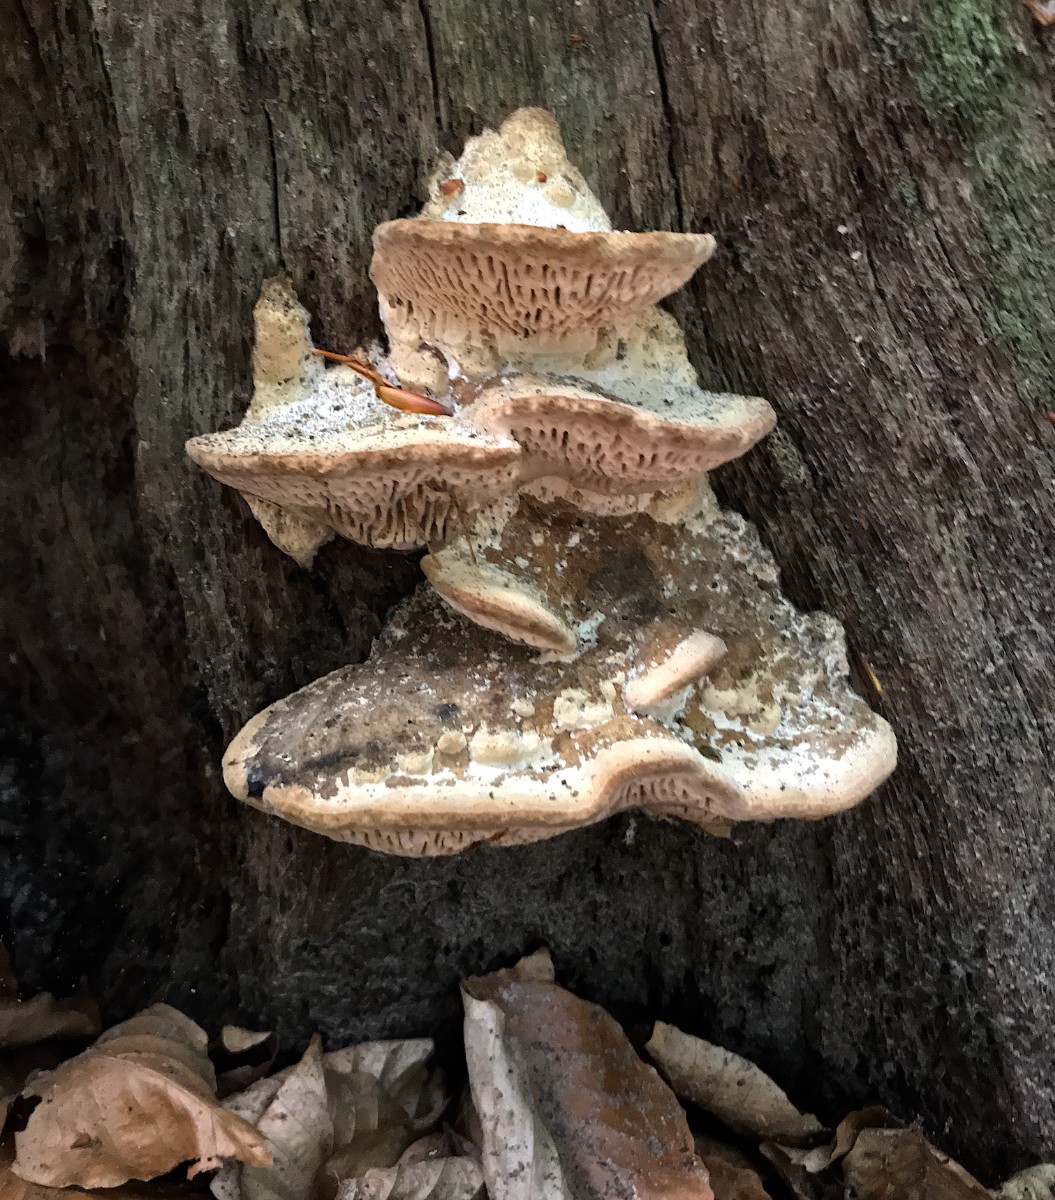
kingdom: Fungi
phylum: Basidiomycota
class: Agaricomycetes
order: Polyporales
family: Fomitopsidaceae
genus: Daedalea
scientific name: Daedalea quercina
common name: ege-labyrintsvamp
